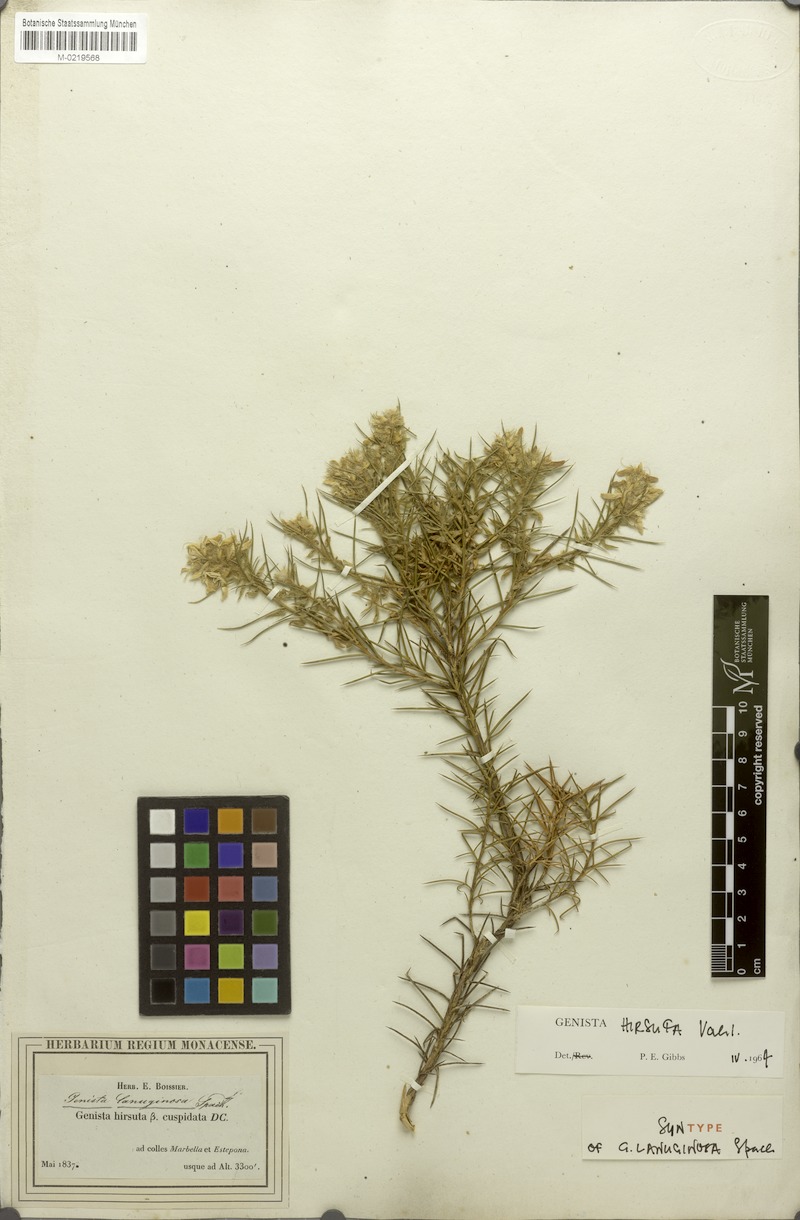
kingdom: Plantae
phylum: Tracheophyta
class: Magnoliopsida
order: Fabales
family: Fabaceae
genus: Genista
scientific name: Genista hirsuta
